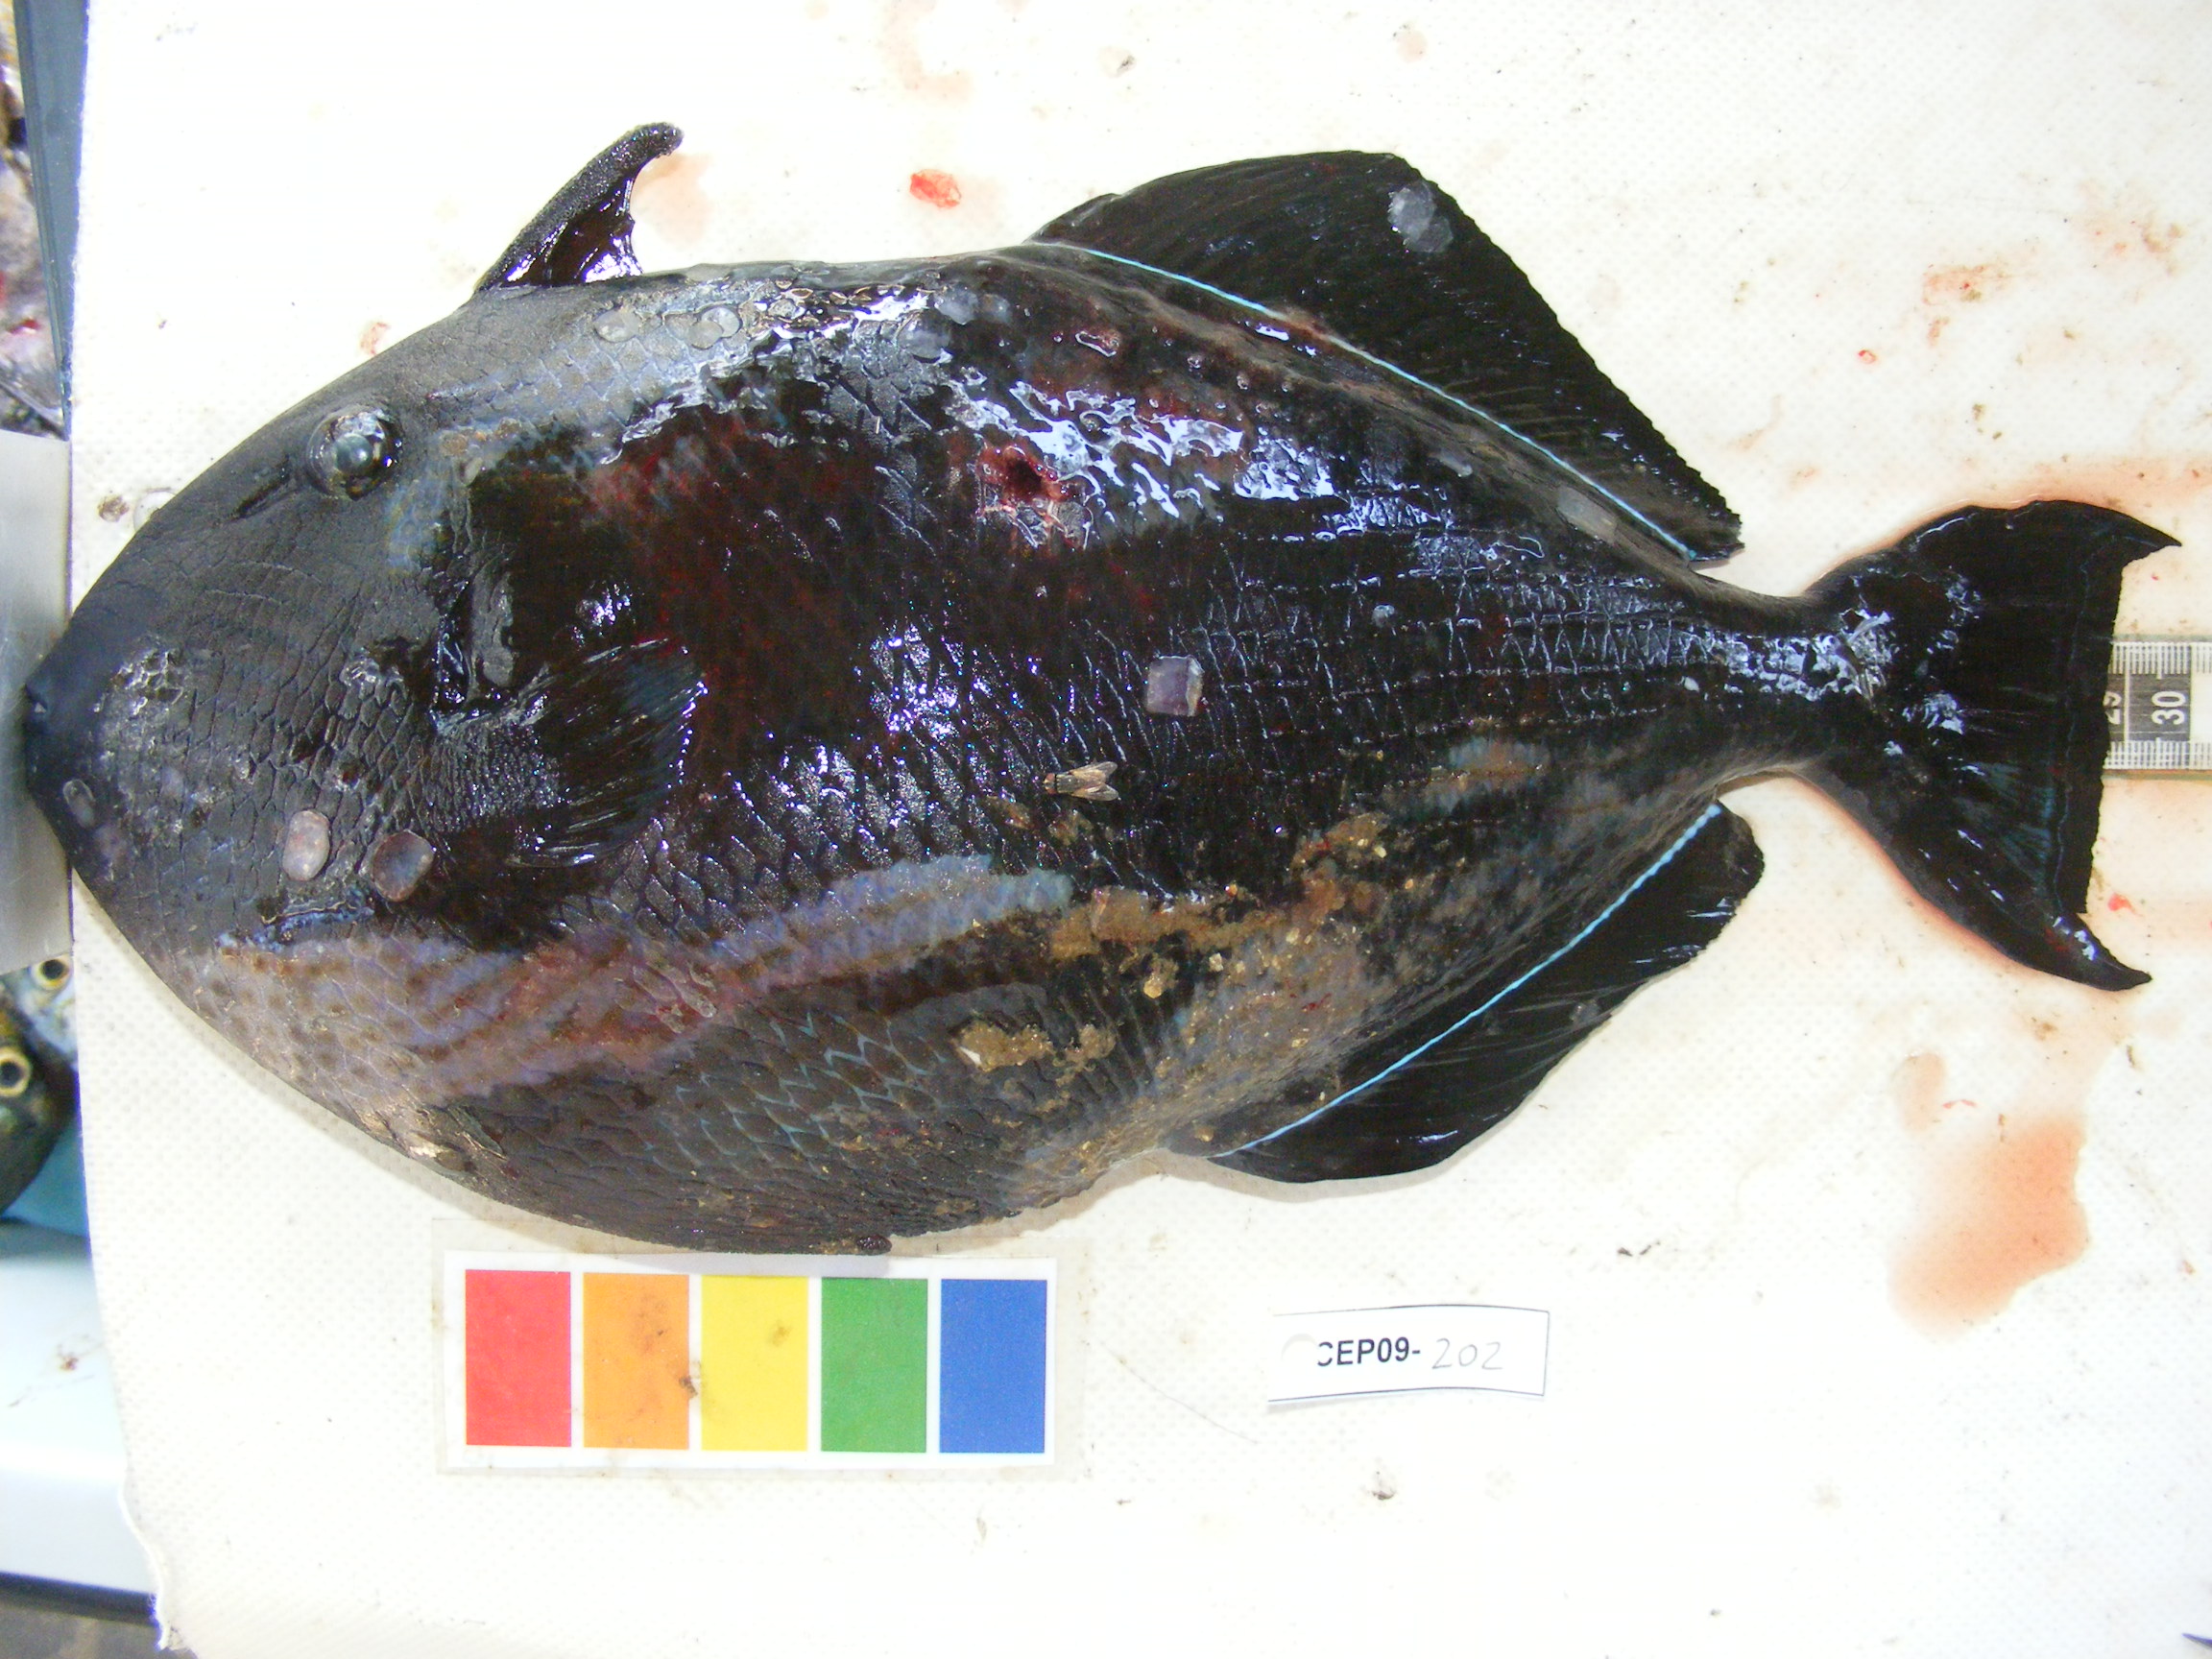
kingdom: Animalia
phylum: Chordata
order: Tetraodontiformes
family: Balistidae
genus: Melichthys
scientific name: Melichthys niger
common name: Black durgon
